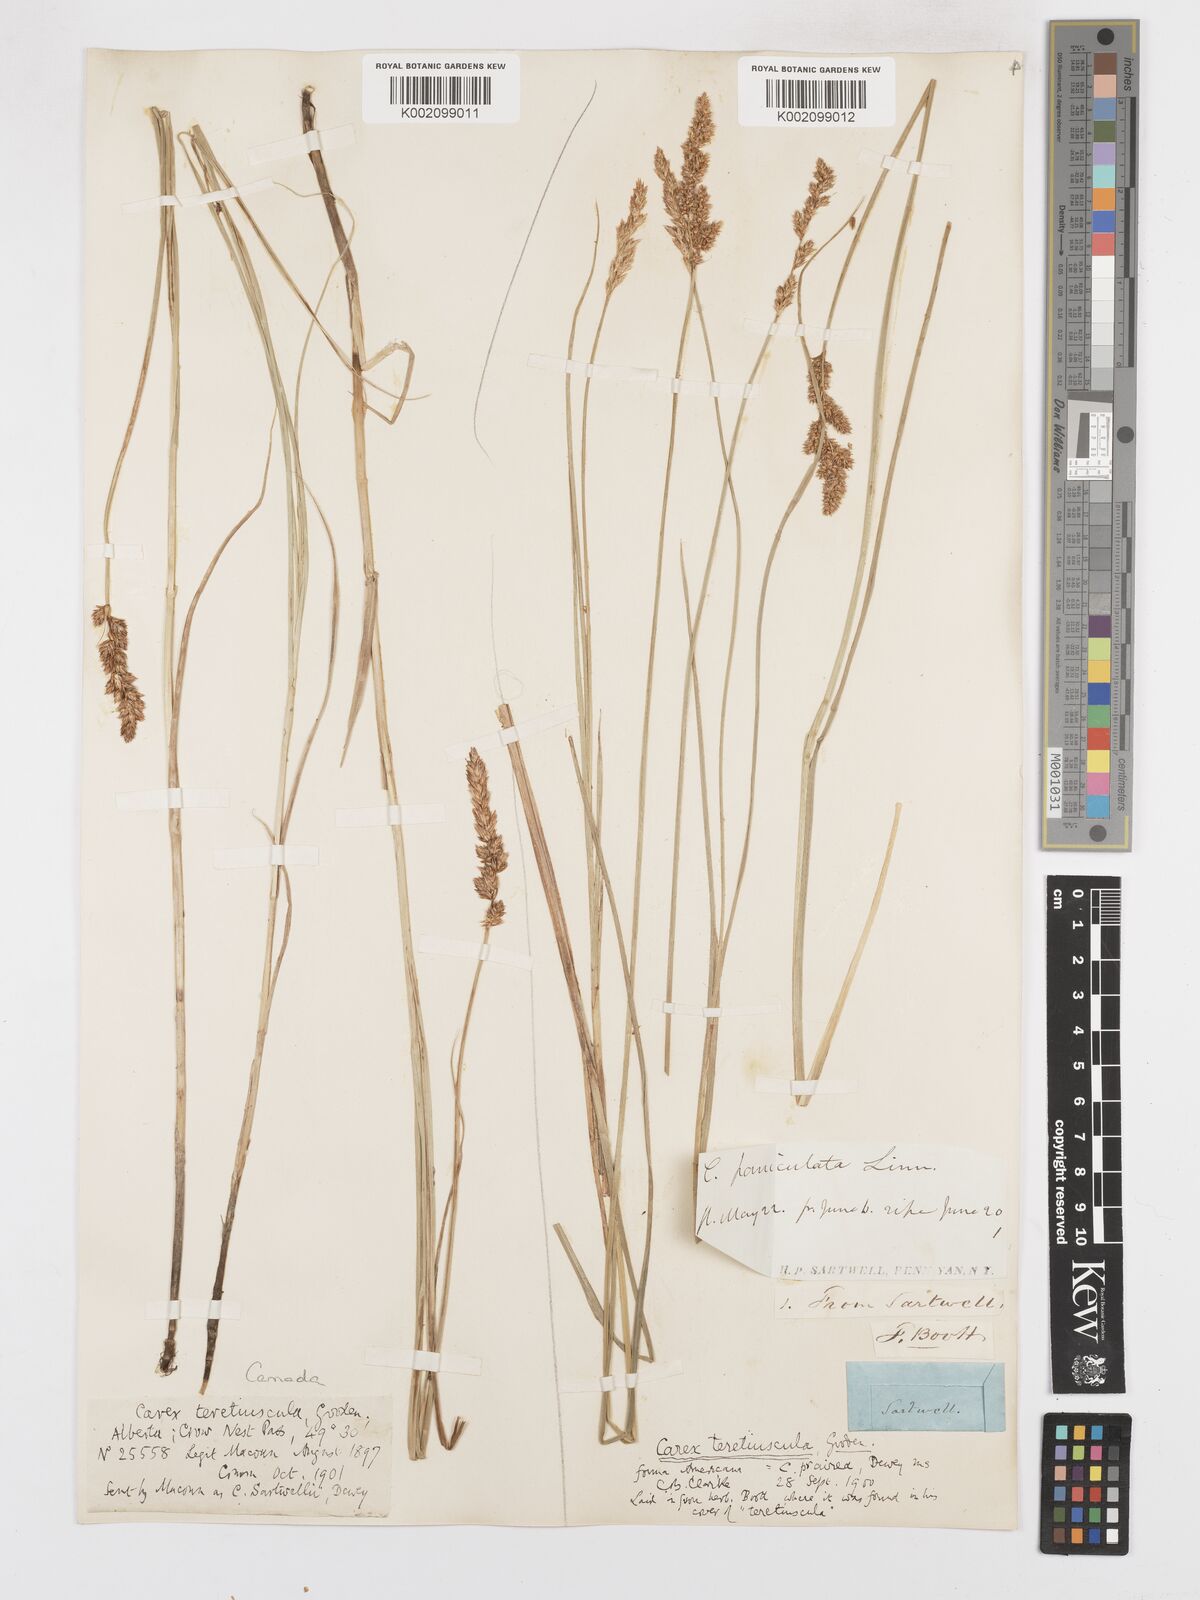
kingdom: Plantae
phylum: Tracheophyta
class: Liliopsida
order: Poales
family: Cyperaceae
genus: Carex
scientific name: Carex diandra
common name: Lesser tussock-sedge
